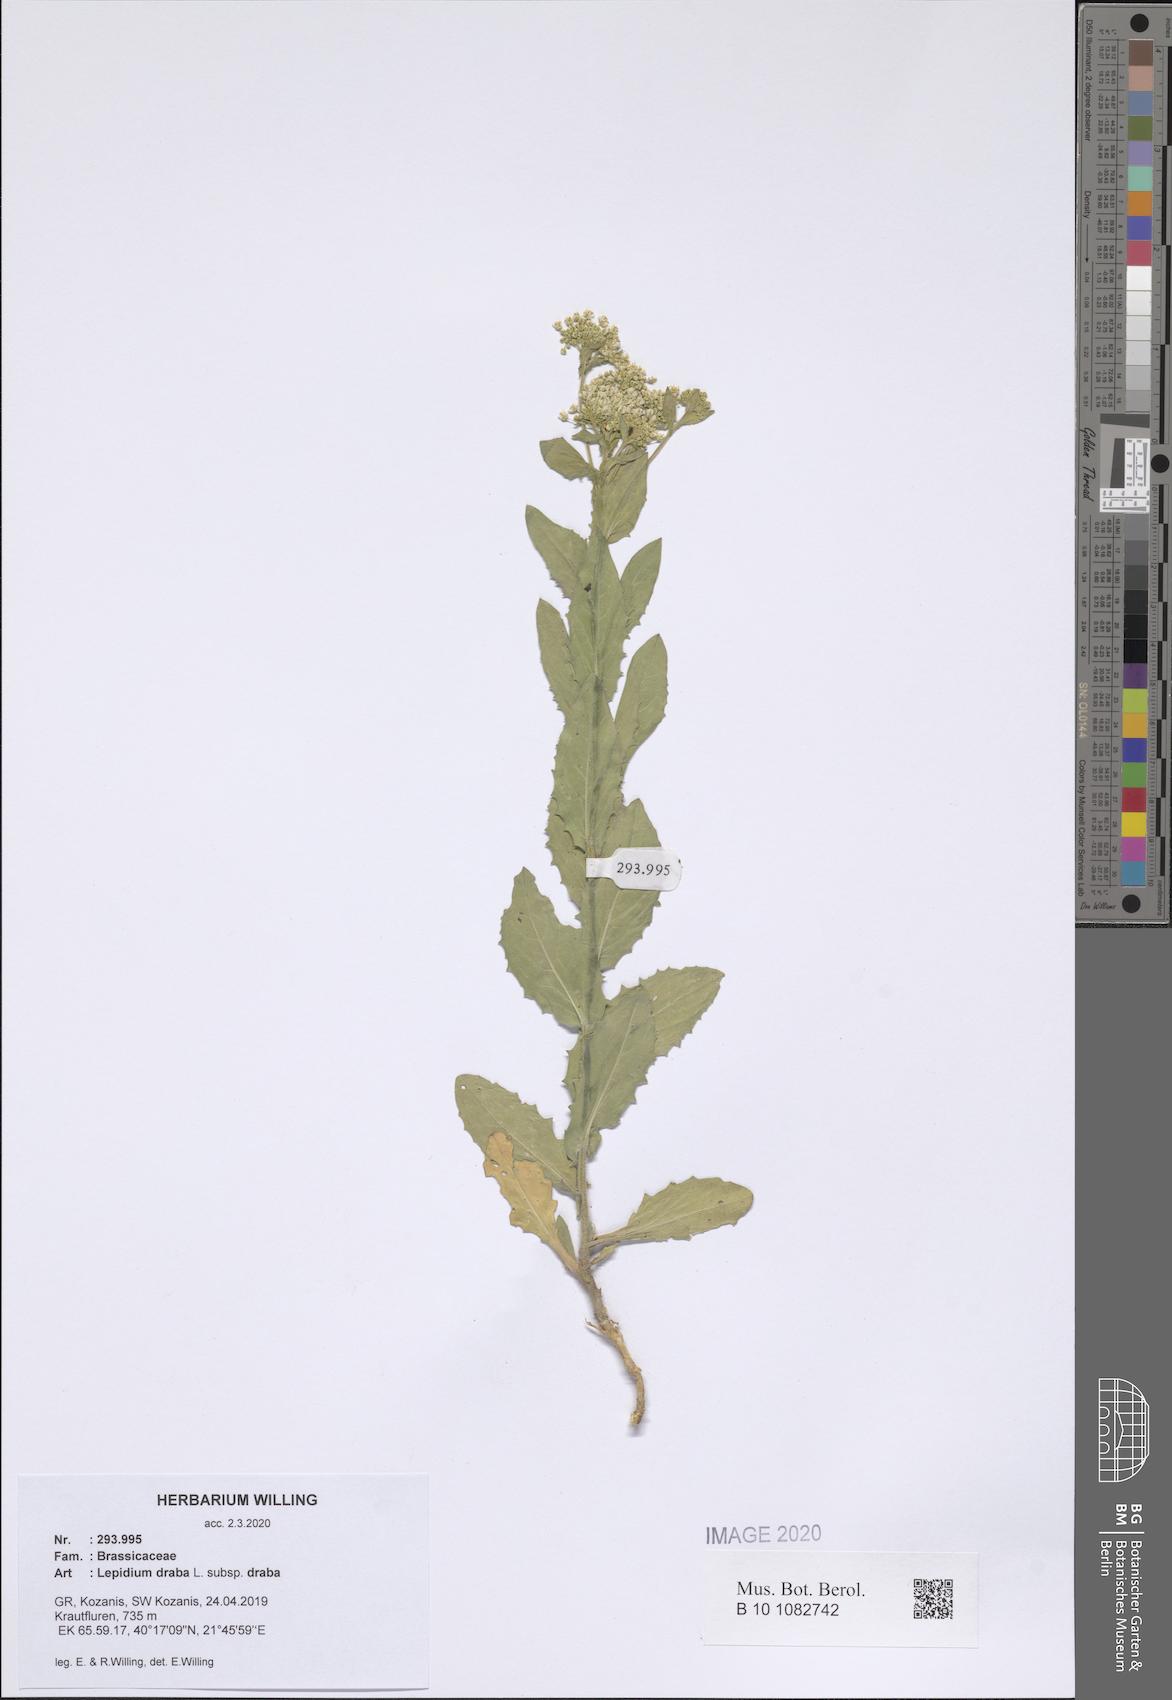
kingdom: Plantae
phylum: Tracheophyta
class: Magnoliopsida
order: Brassicales
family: Brassicaceae
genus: Lepidium
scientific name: Lepidium draba
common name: Hoary cress
